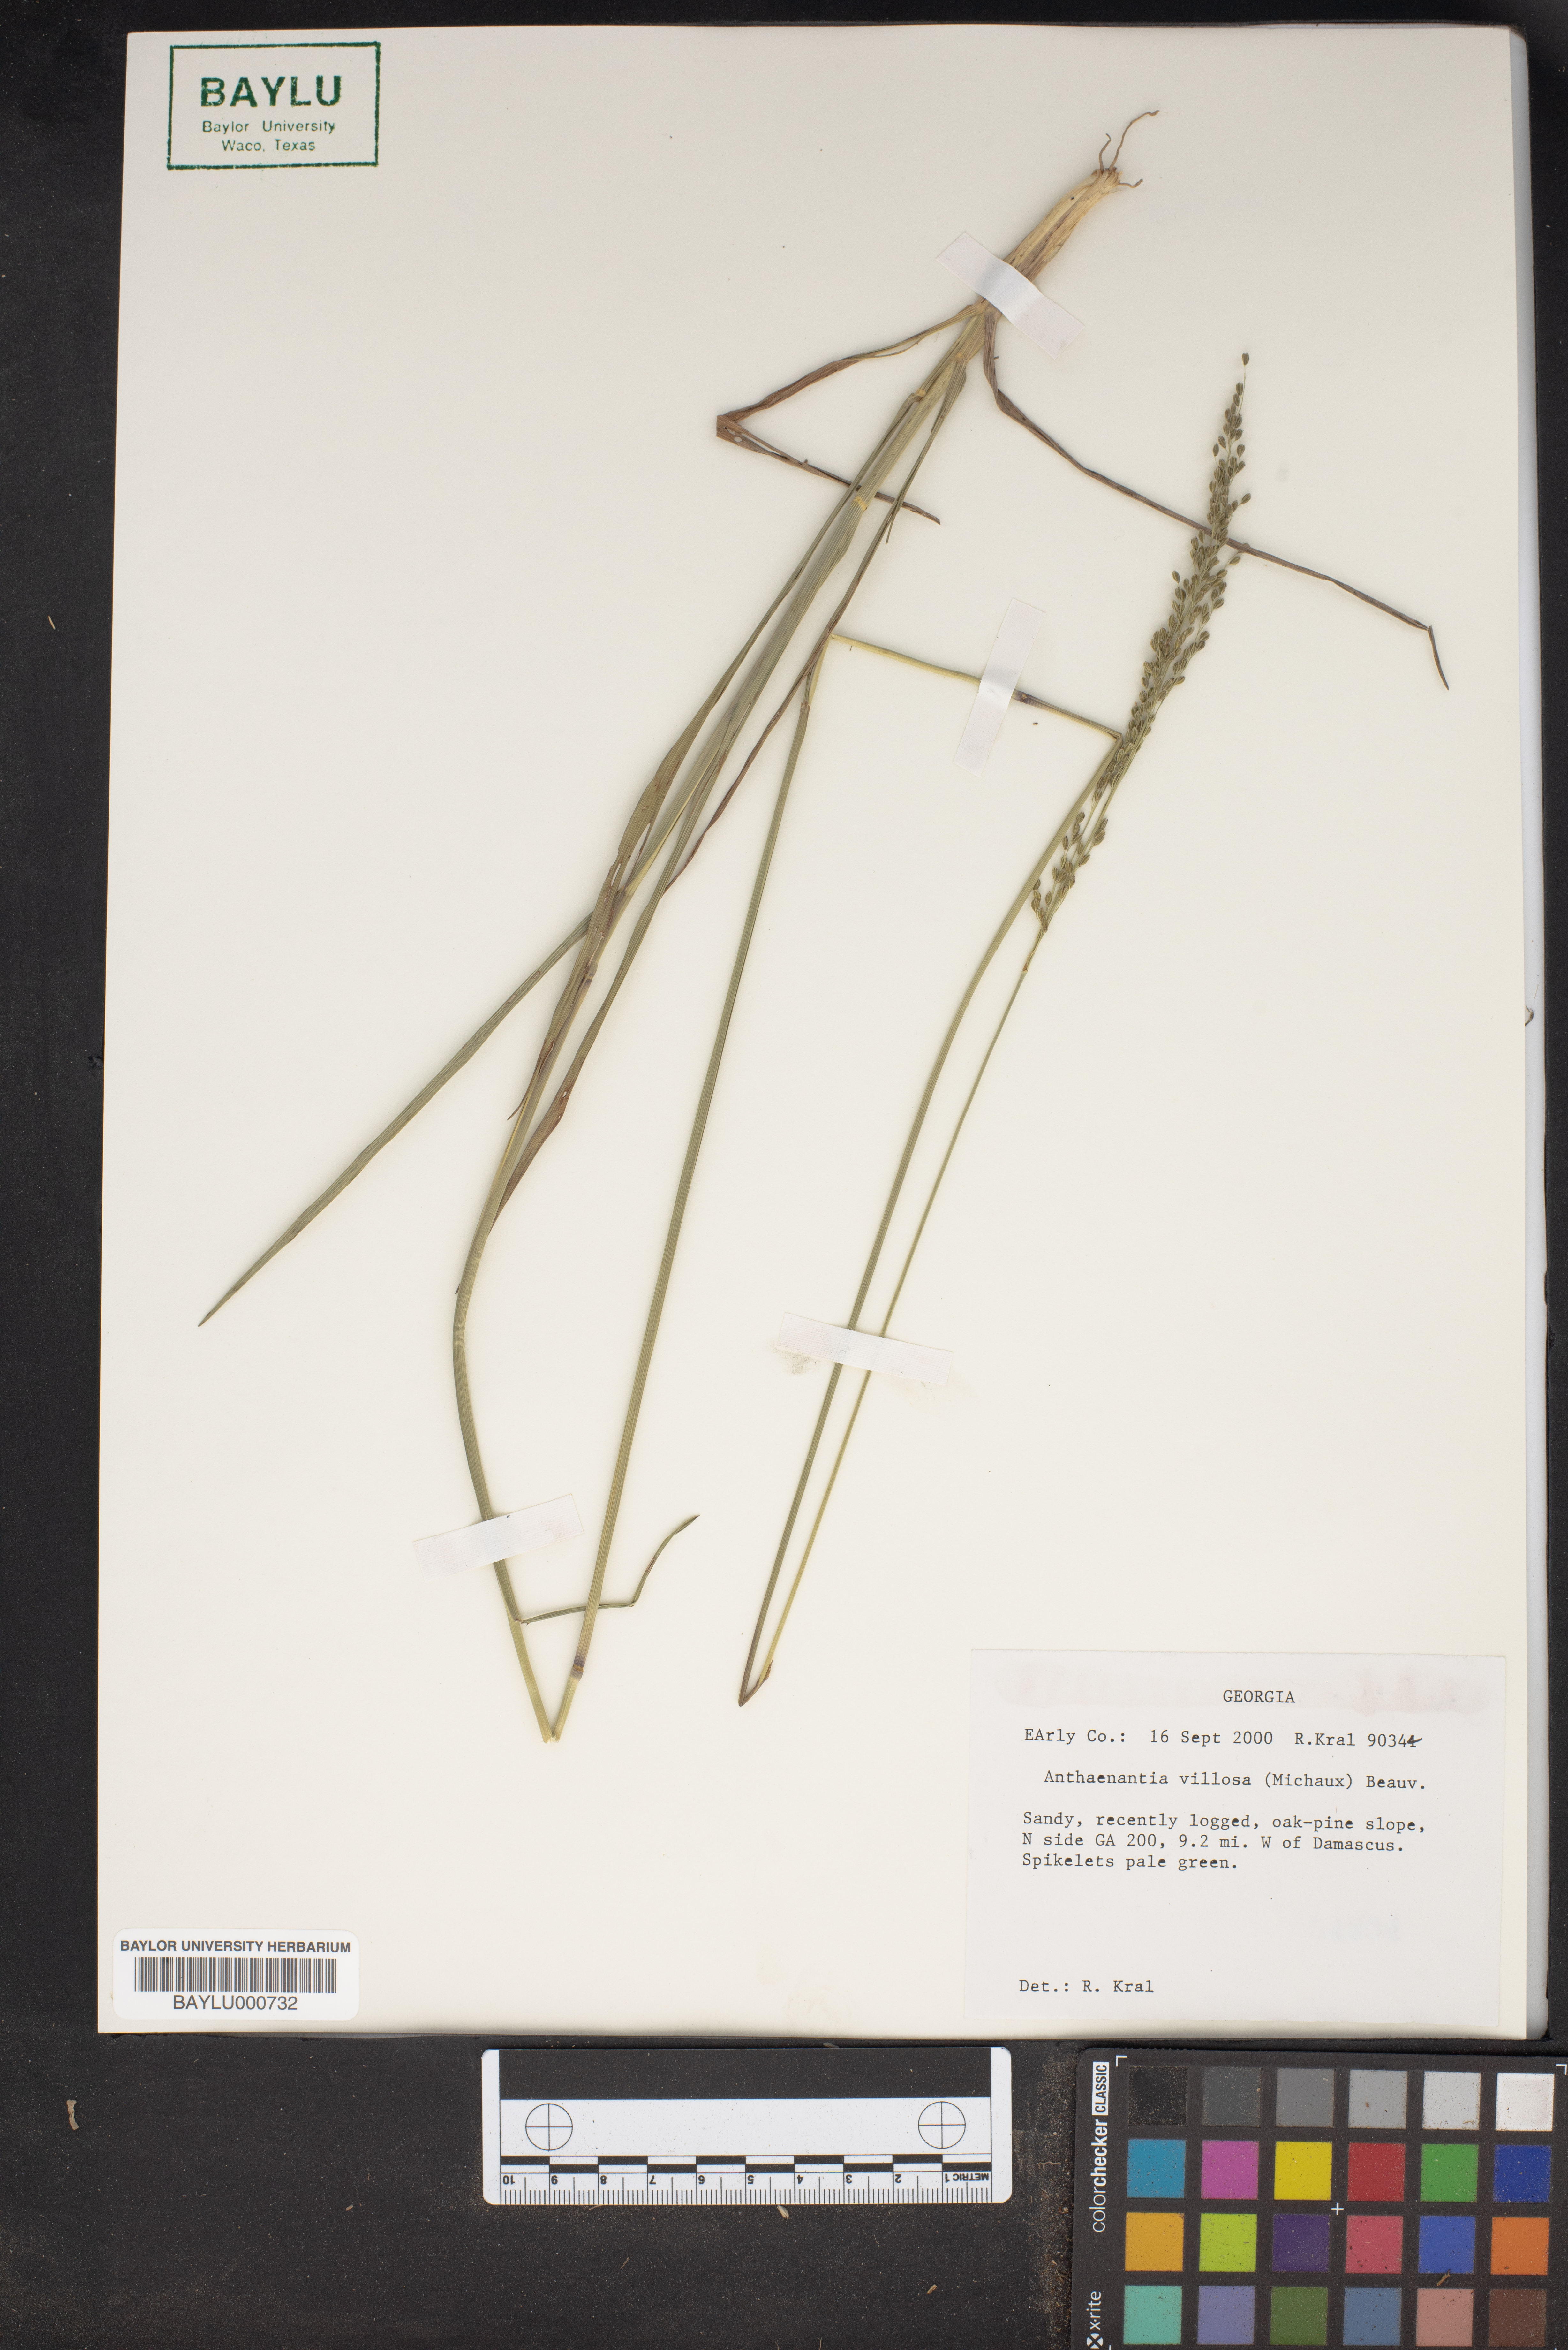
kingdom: Plantae
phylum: Tracheophyta
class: Liliopsida
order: Poales
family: Poaceae
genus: Anthenantia
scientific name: Anthenantia villosa
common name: Green silkyscale
